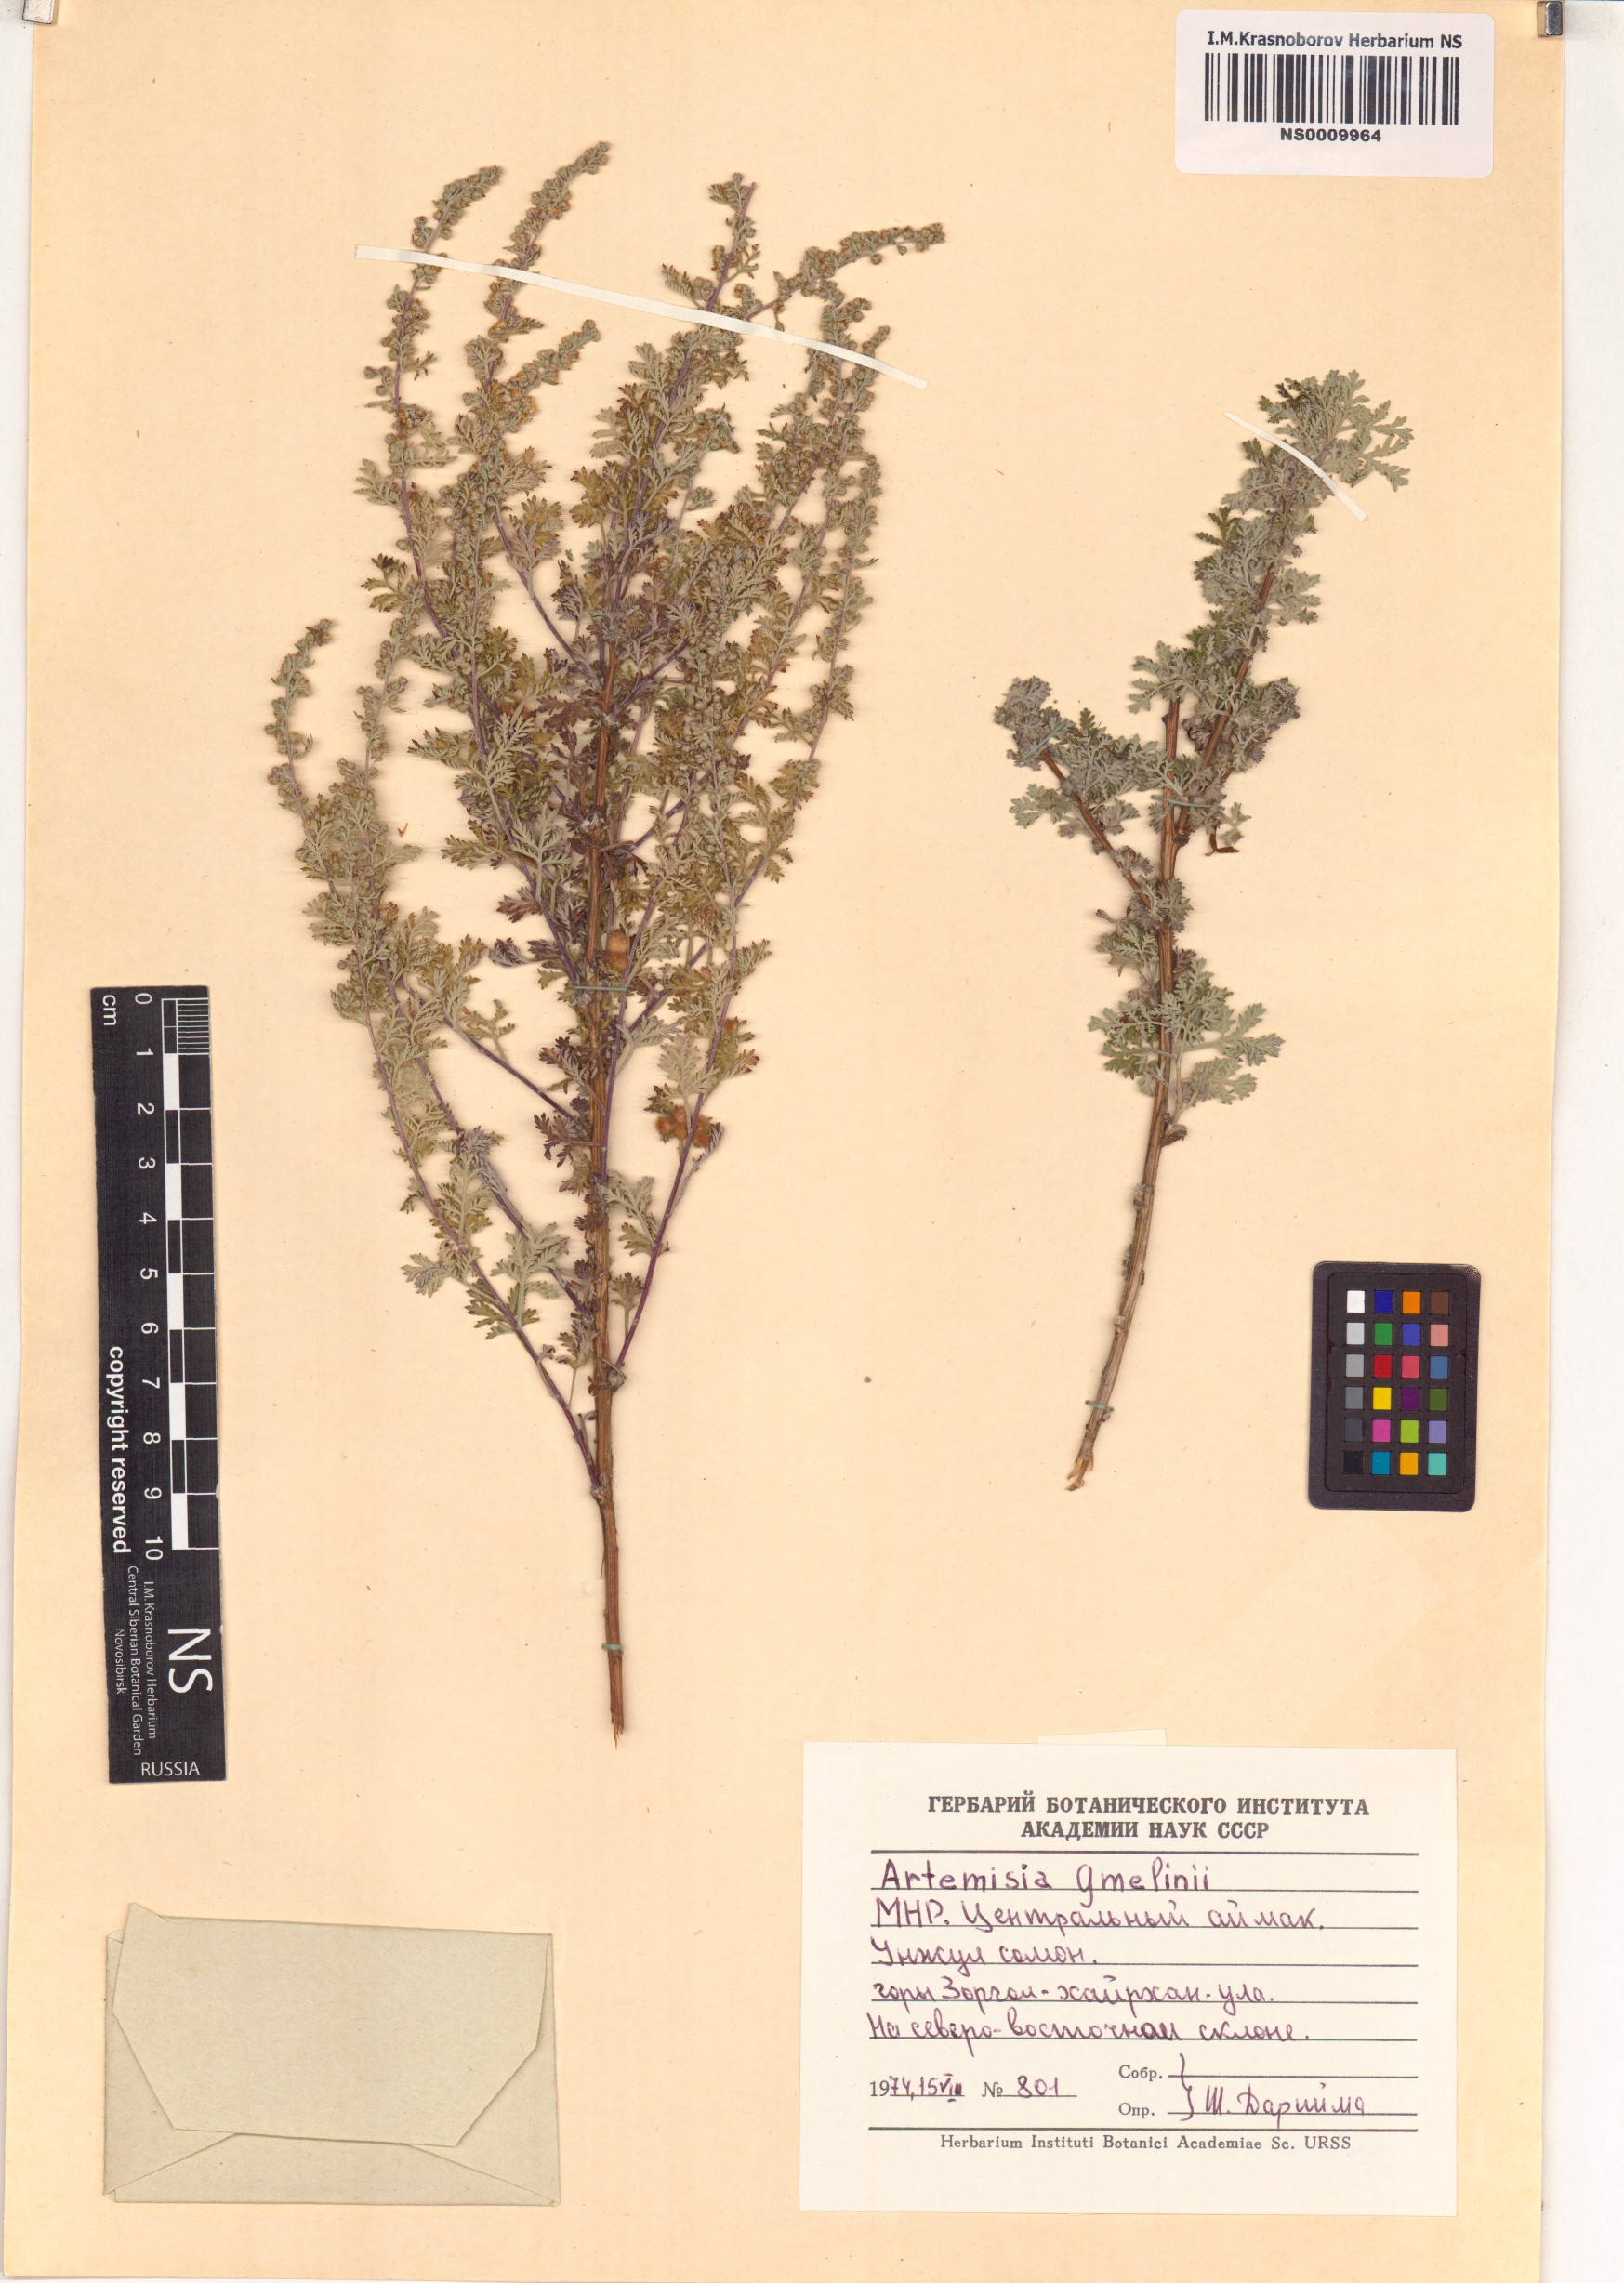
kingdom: Plantae
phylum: Tracheophyta
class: Magnoliopsida
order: Asterales
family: Asteraceae
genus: Artemisia
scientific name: Artemisia gmelinii
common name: Gmelin's wormwood
